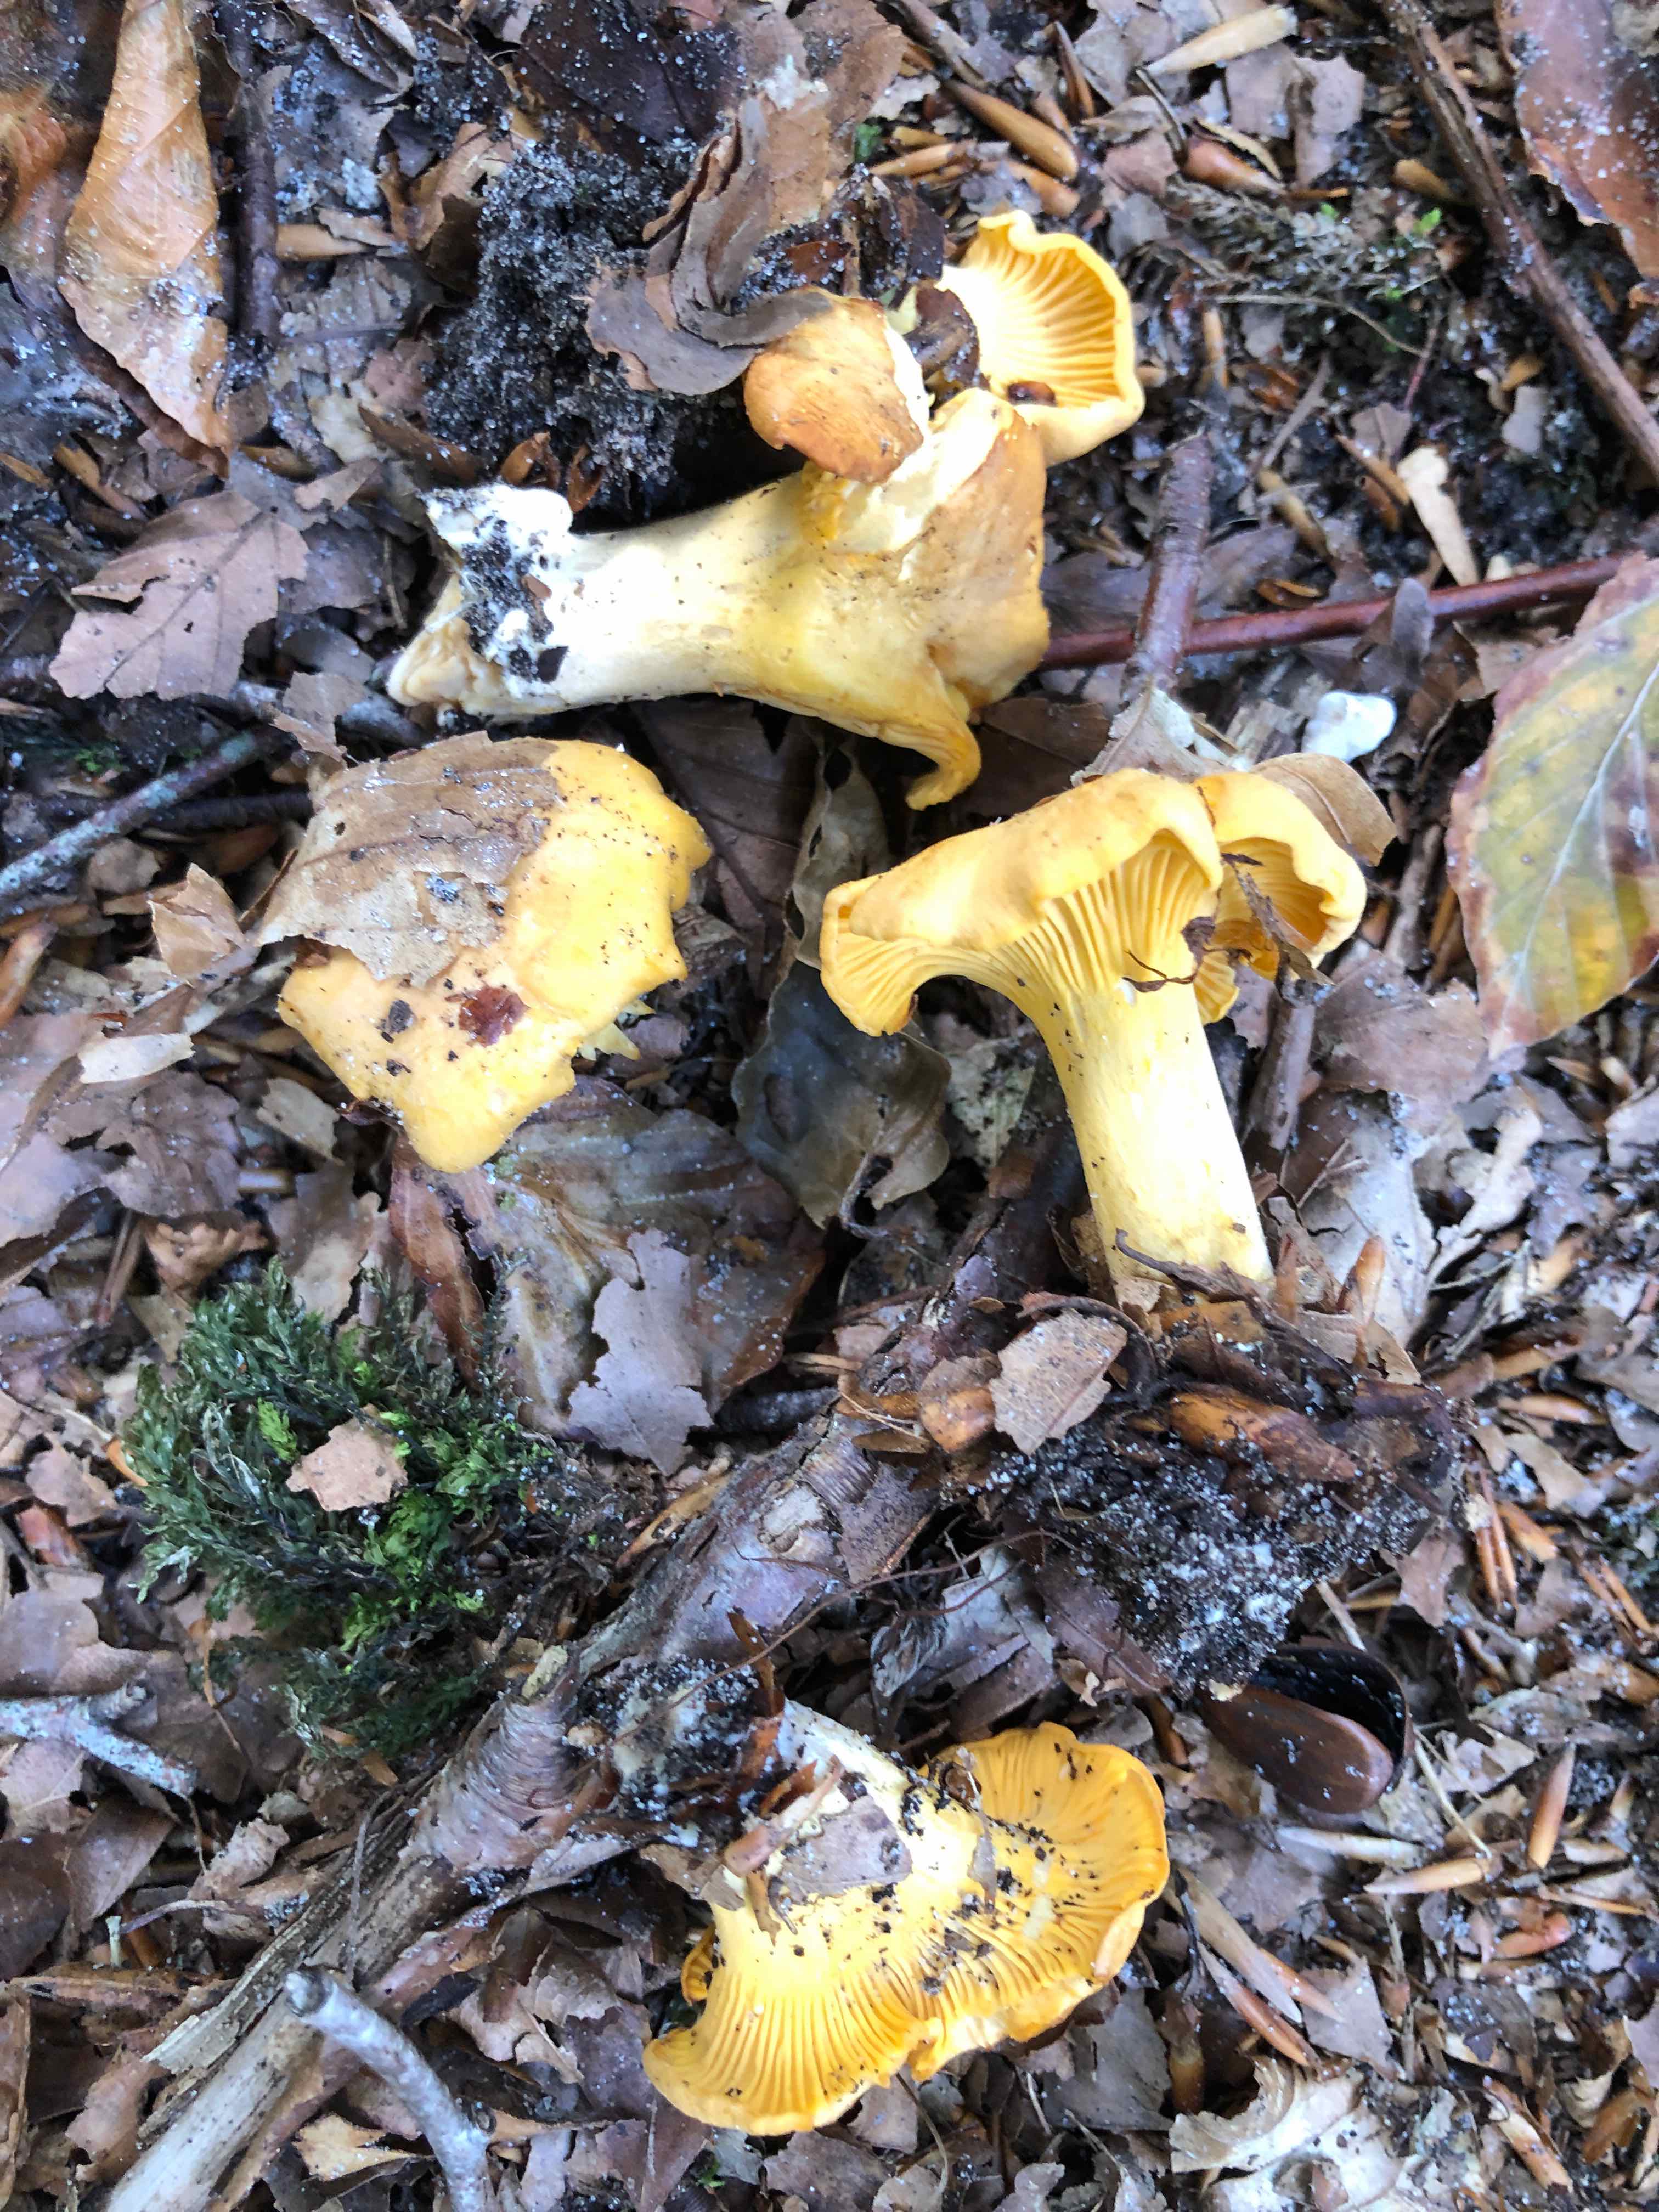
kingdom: Fungi
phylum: Basidiomycota
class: Agaricomycetes
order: Cantharellales
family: Hydnaceae
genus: Cantharellus
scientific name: Cantharellus pallens
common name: bleg kantarel
